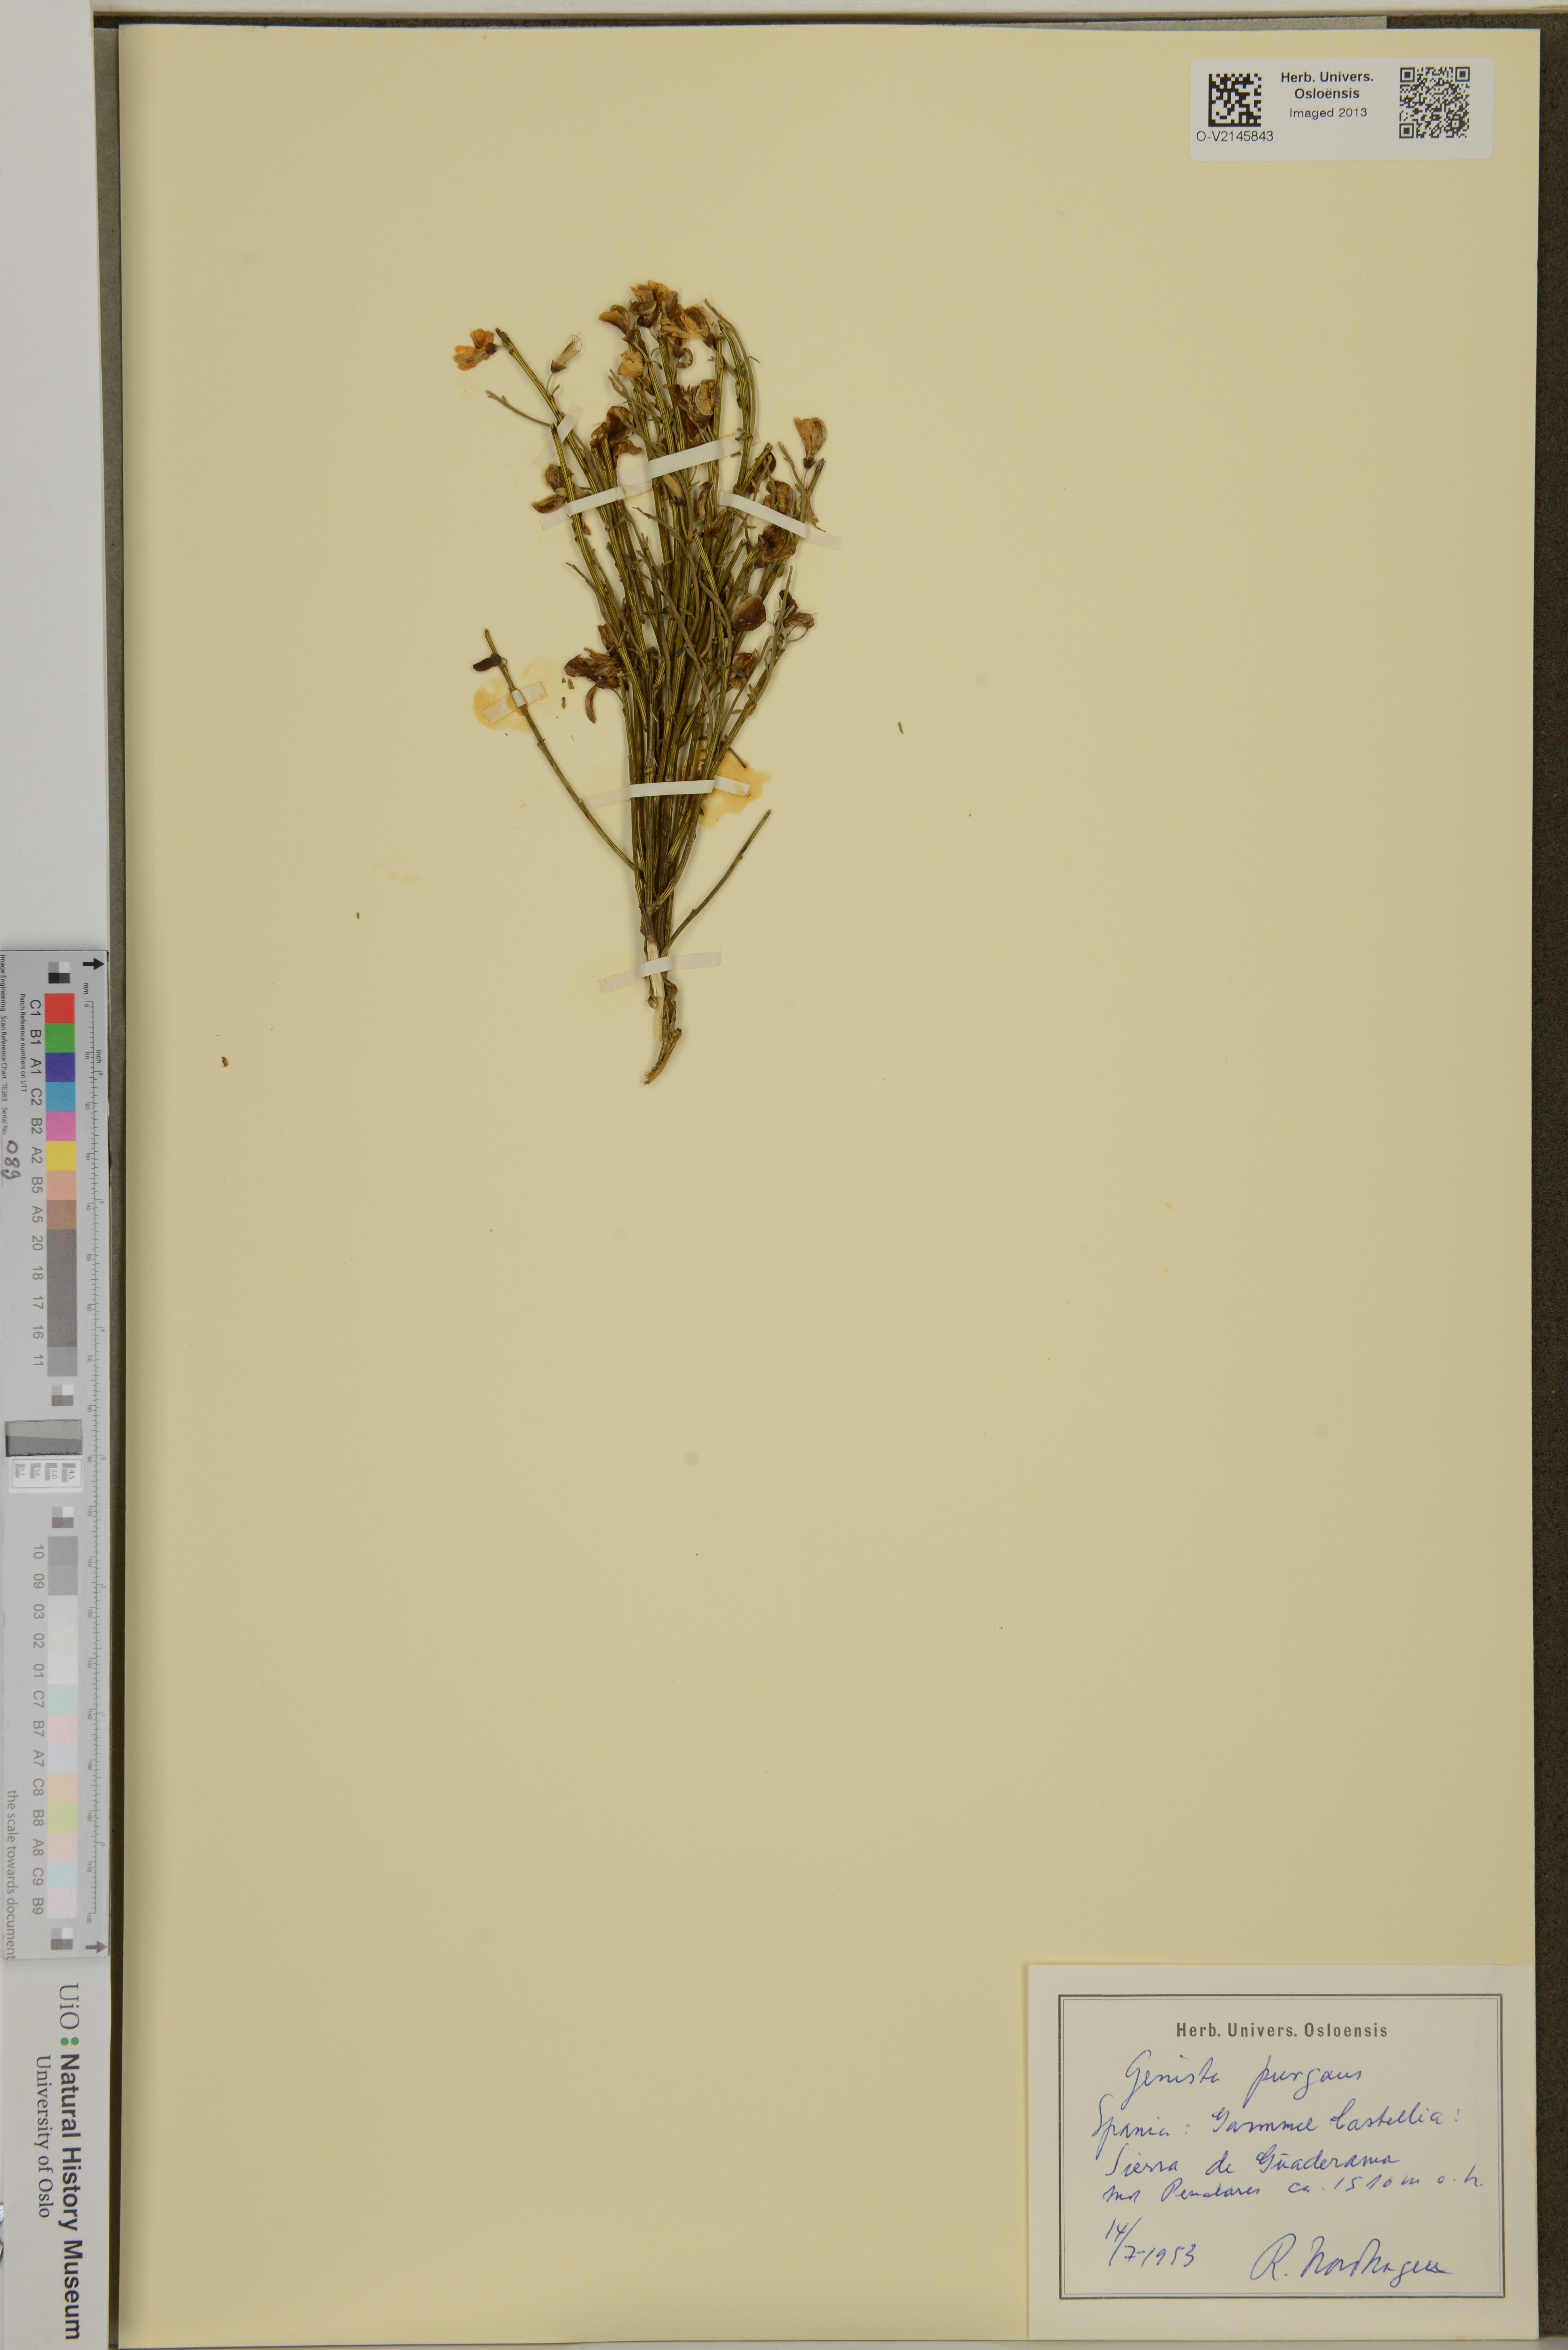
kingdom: Plantae
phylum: Tracheophyta
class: Magnoliopsida
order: Fabales
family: Fabaceae
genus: Genista
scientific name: Genista scorpius
